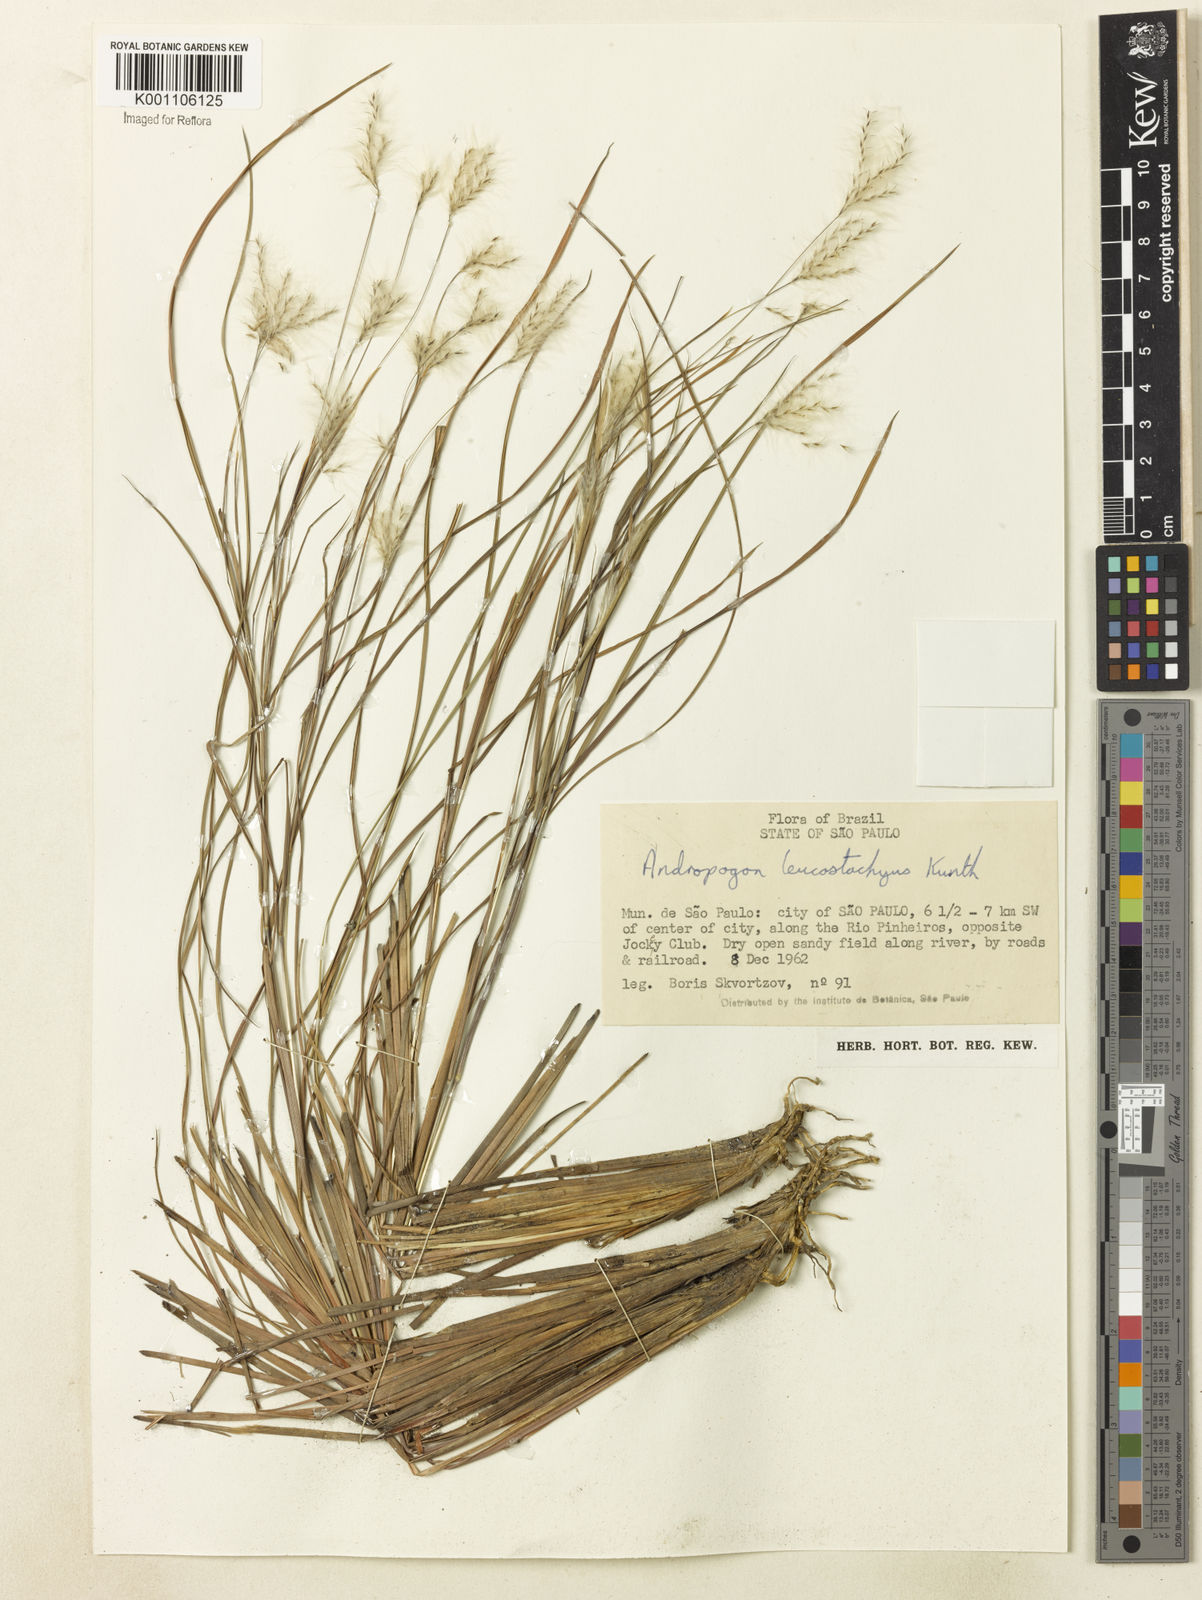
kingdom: Plantae
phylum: Tracheophyta
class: Liliopsida
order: Poales
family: Poaceae
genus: Andropogon
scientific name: Andropogon leucostachyus
